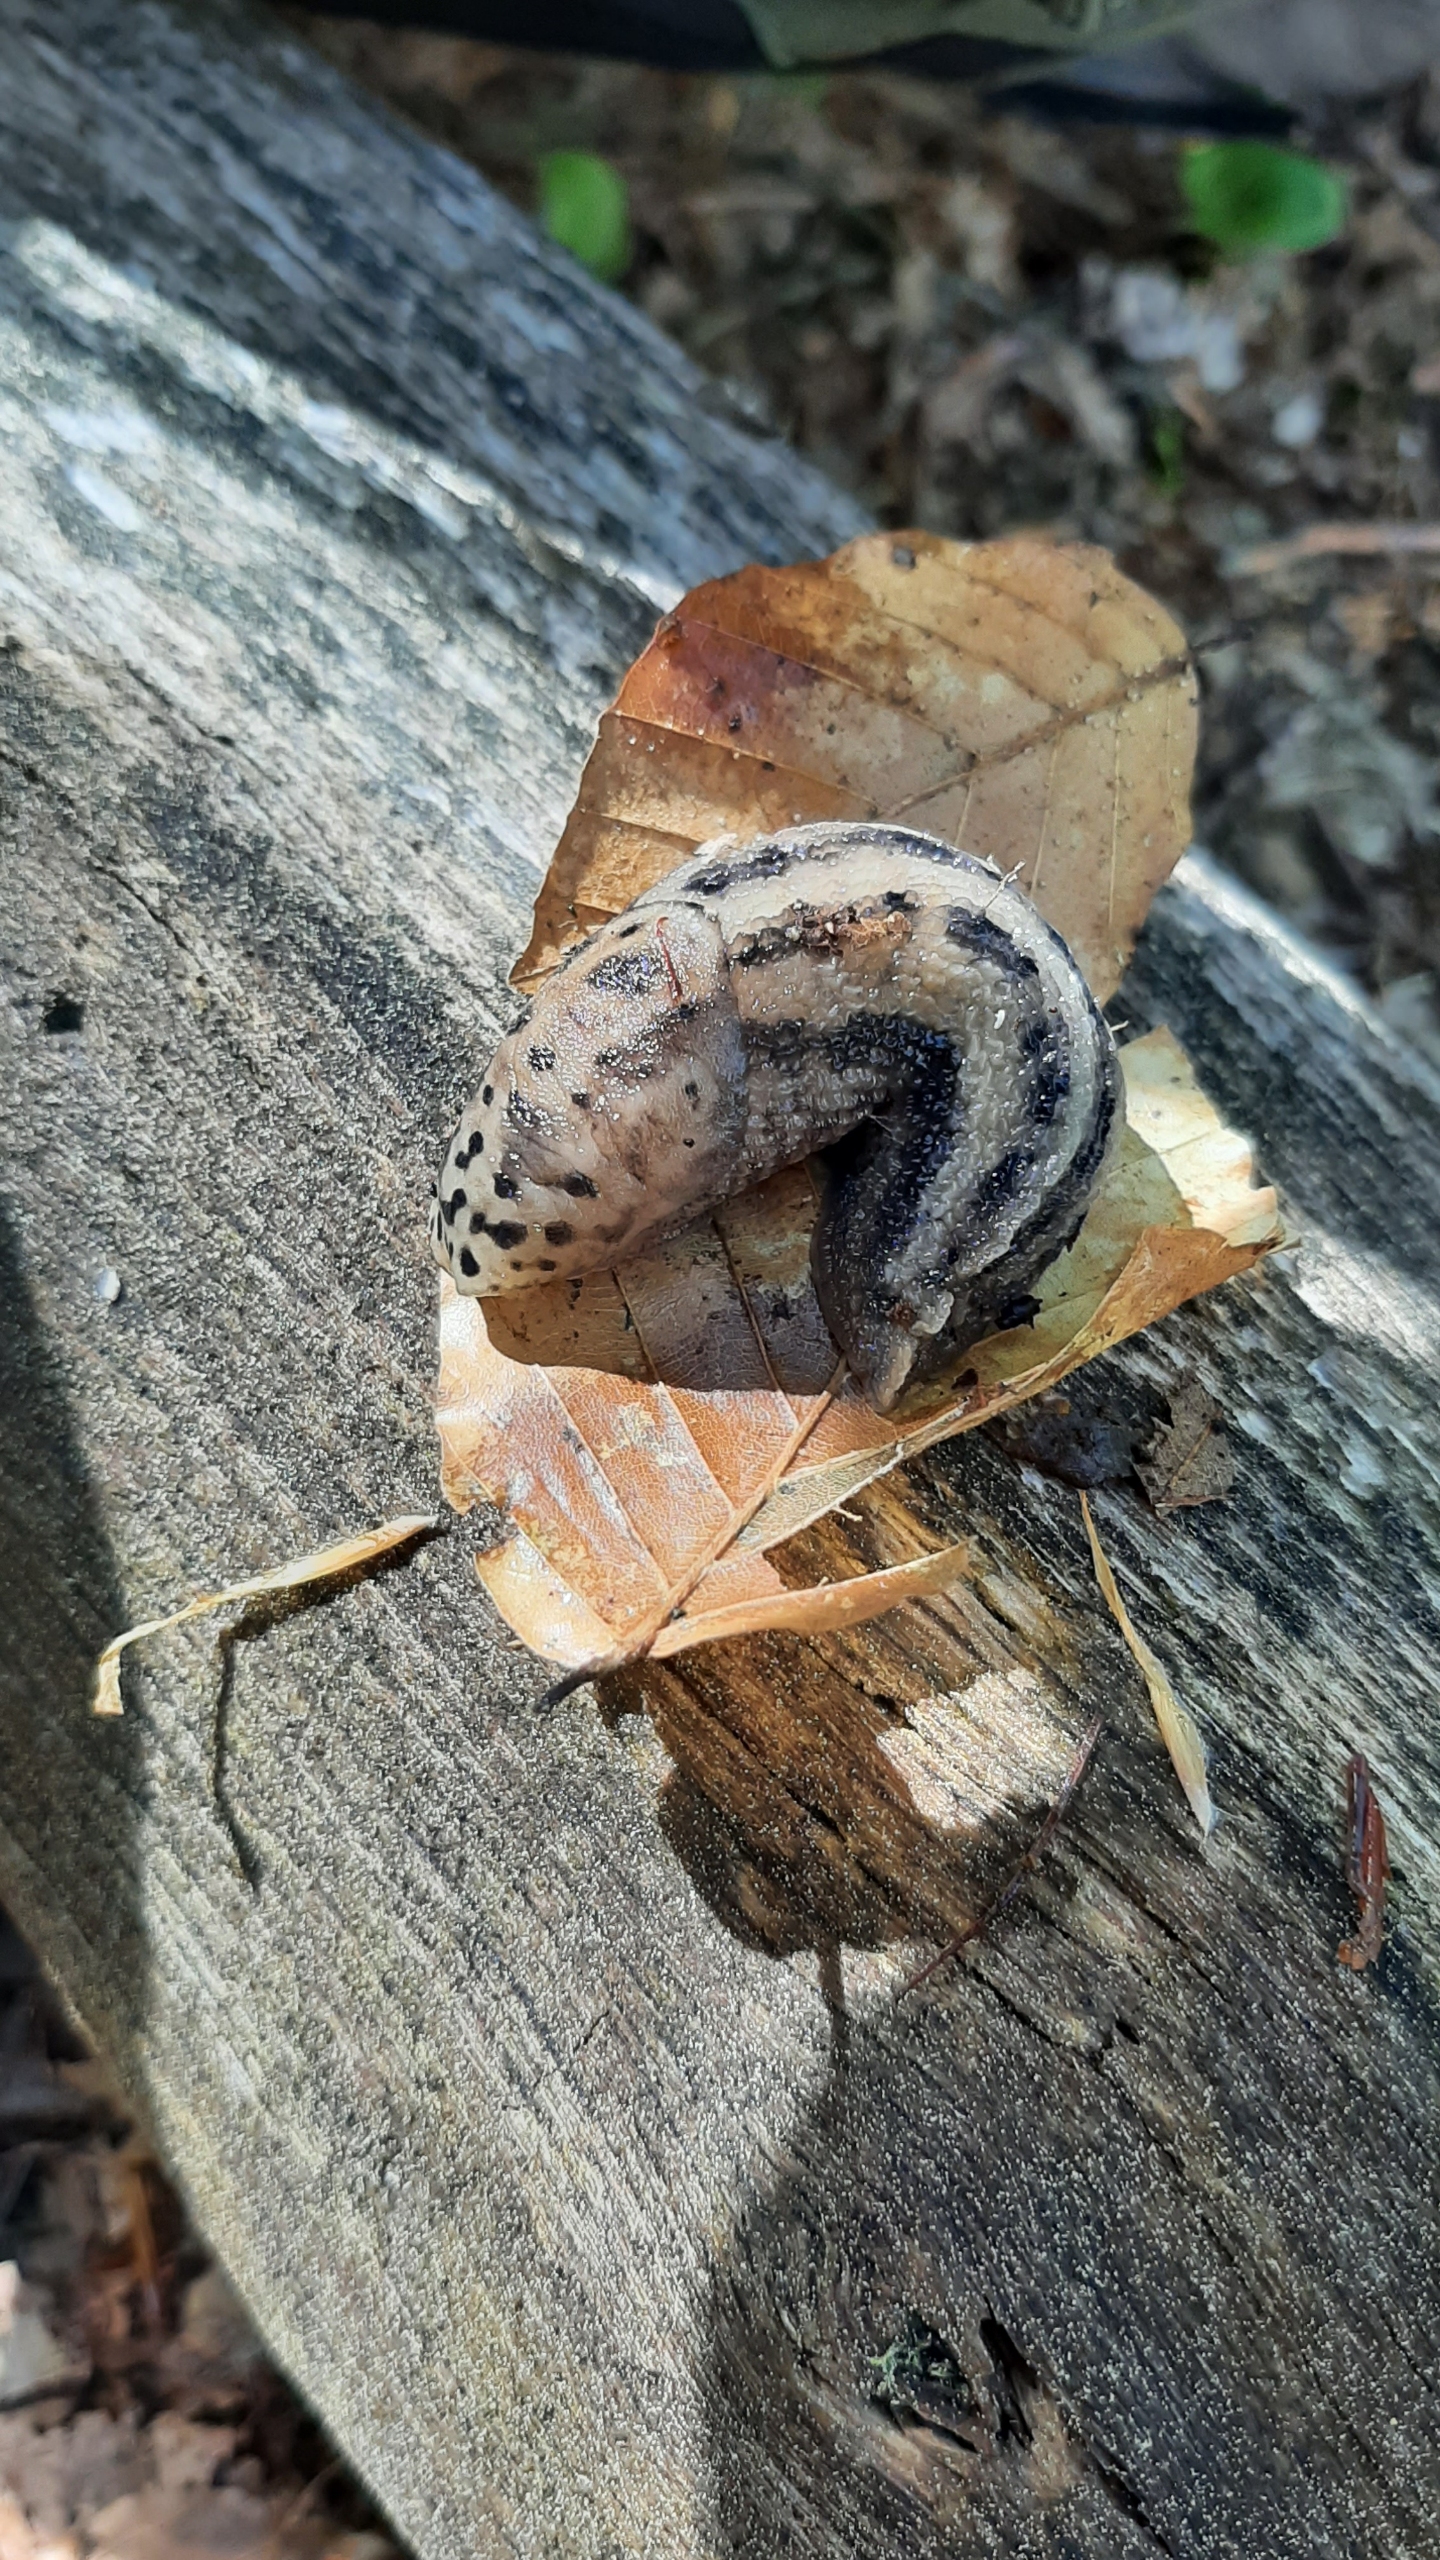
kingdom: Animalia
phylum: Mollusca
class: Gastropoda
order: Stylommatophora
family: Limacidae
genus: Limax
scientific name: Limax maximus
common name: Pantersnegl
